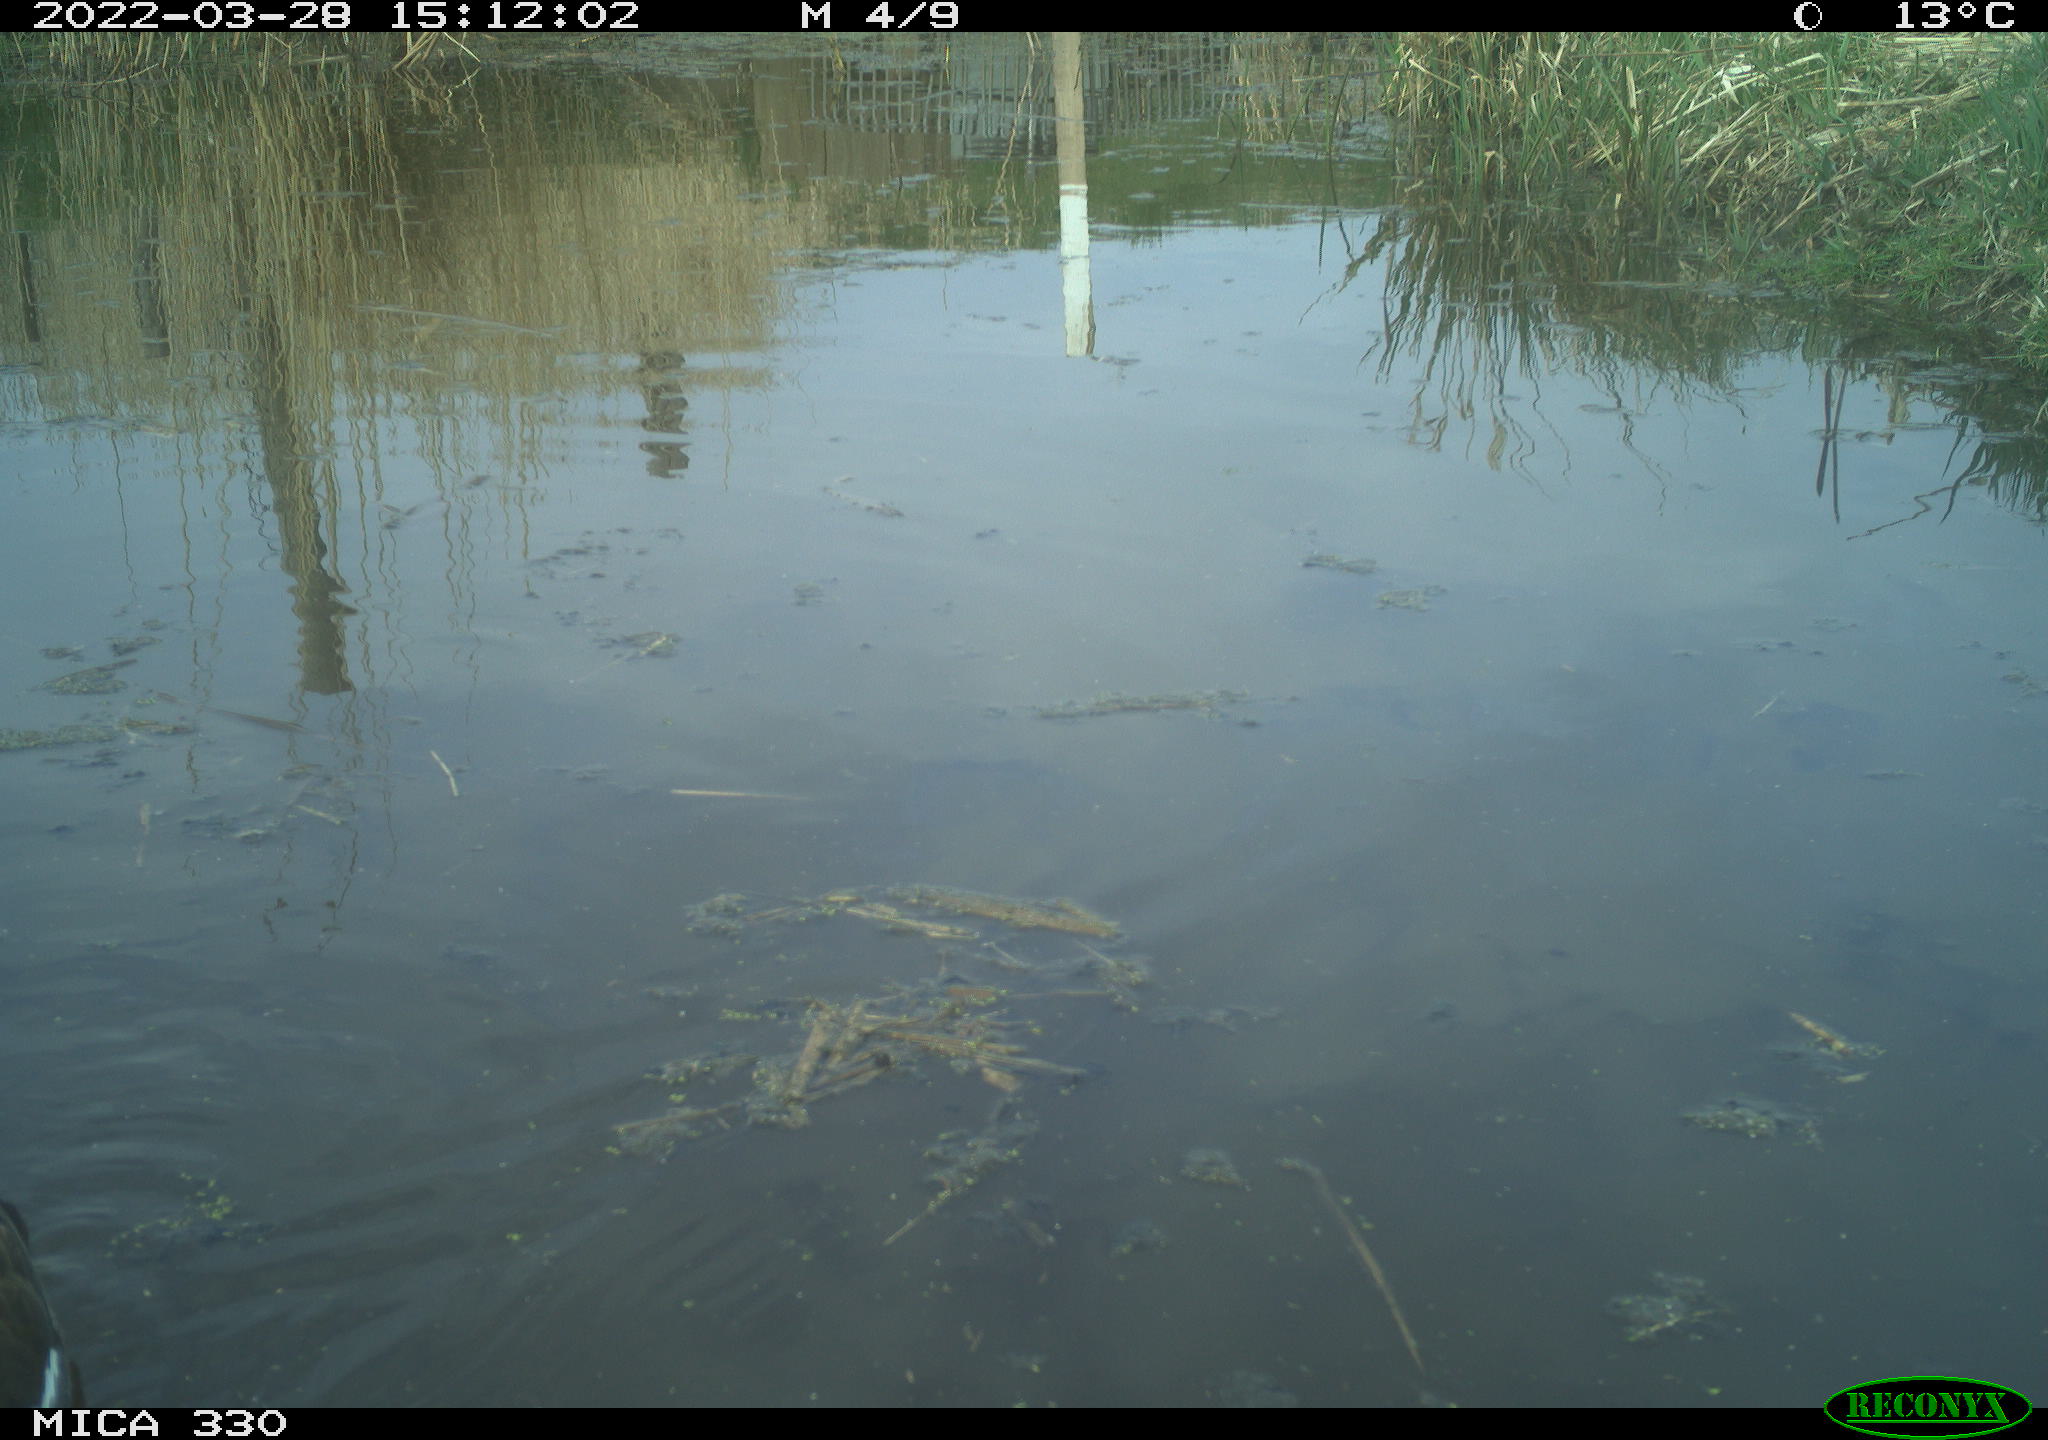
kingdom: Animalia
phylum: Chordata
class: Aves
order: Gruiformes
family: Rallidae
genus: Gallinula
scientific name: Gallinula chloropus
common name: Common moorhen
